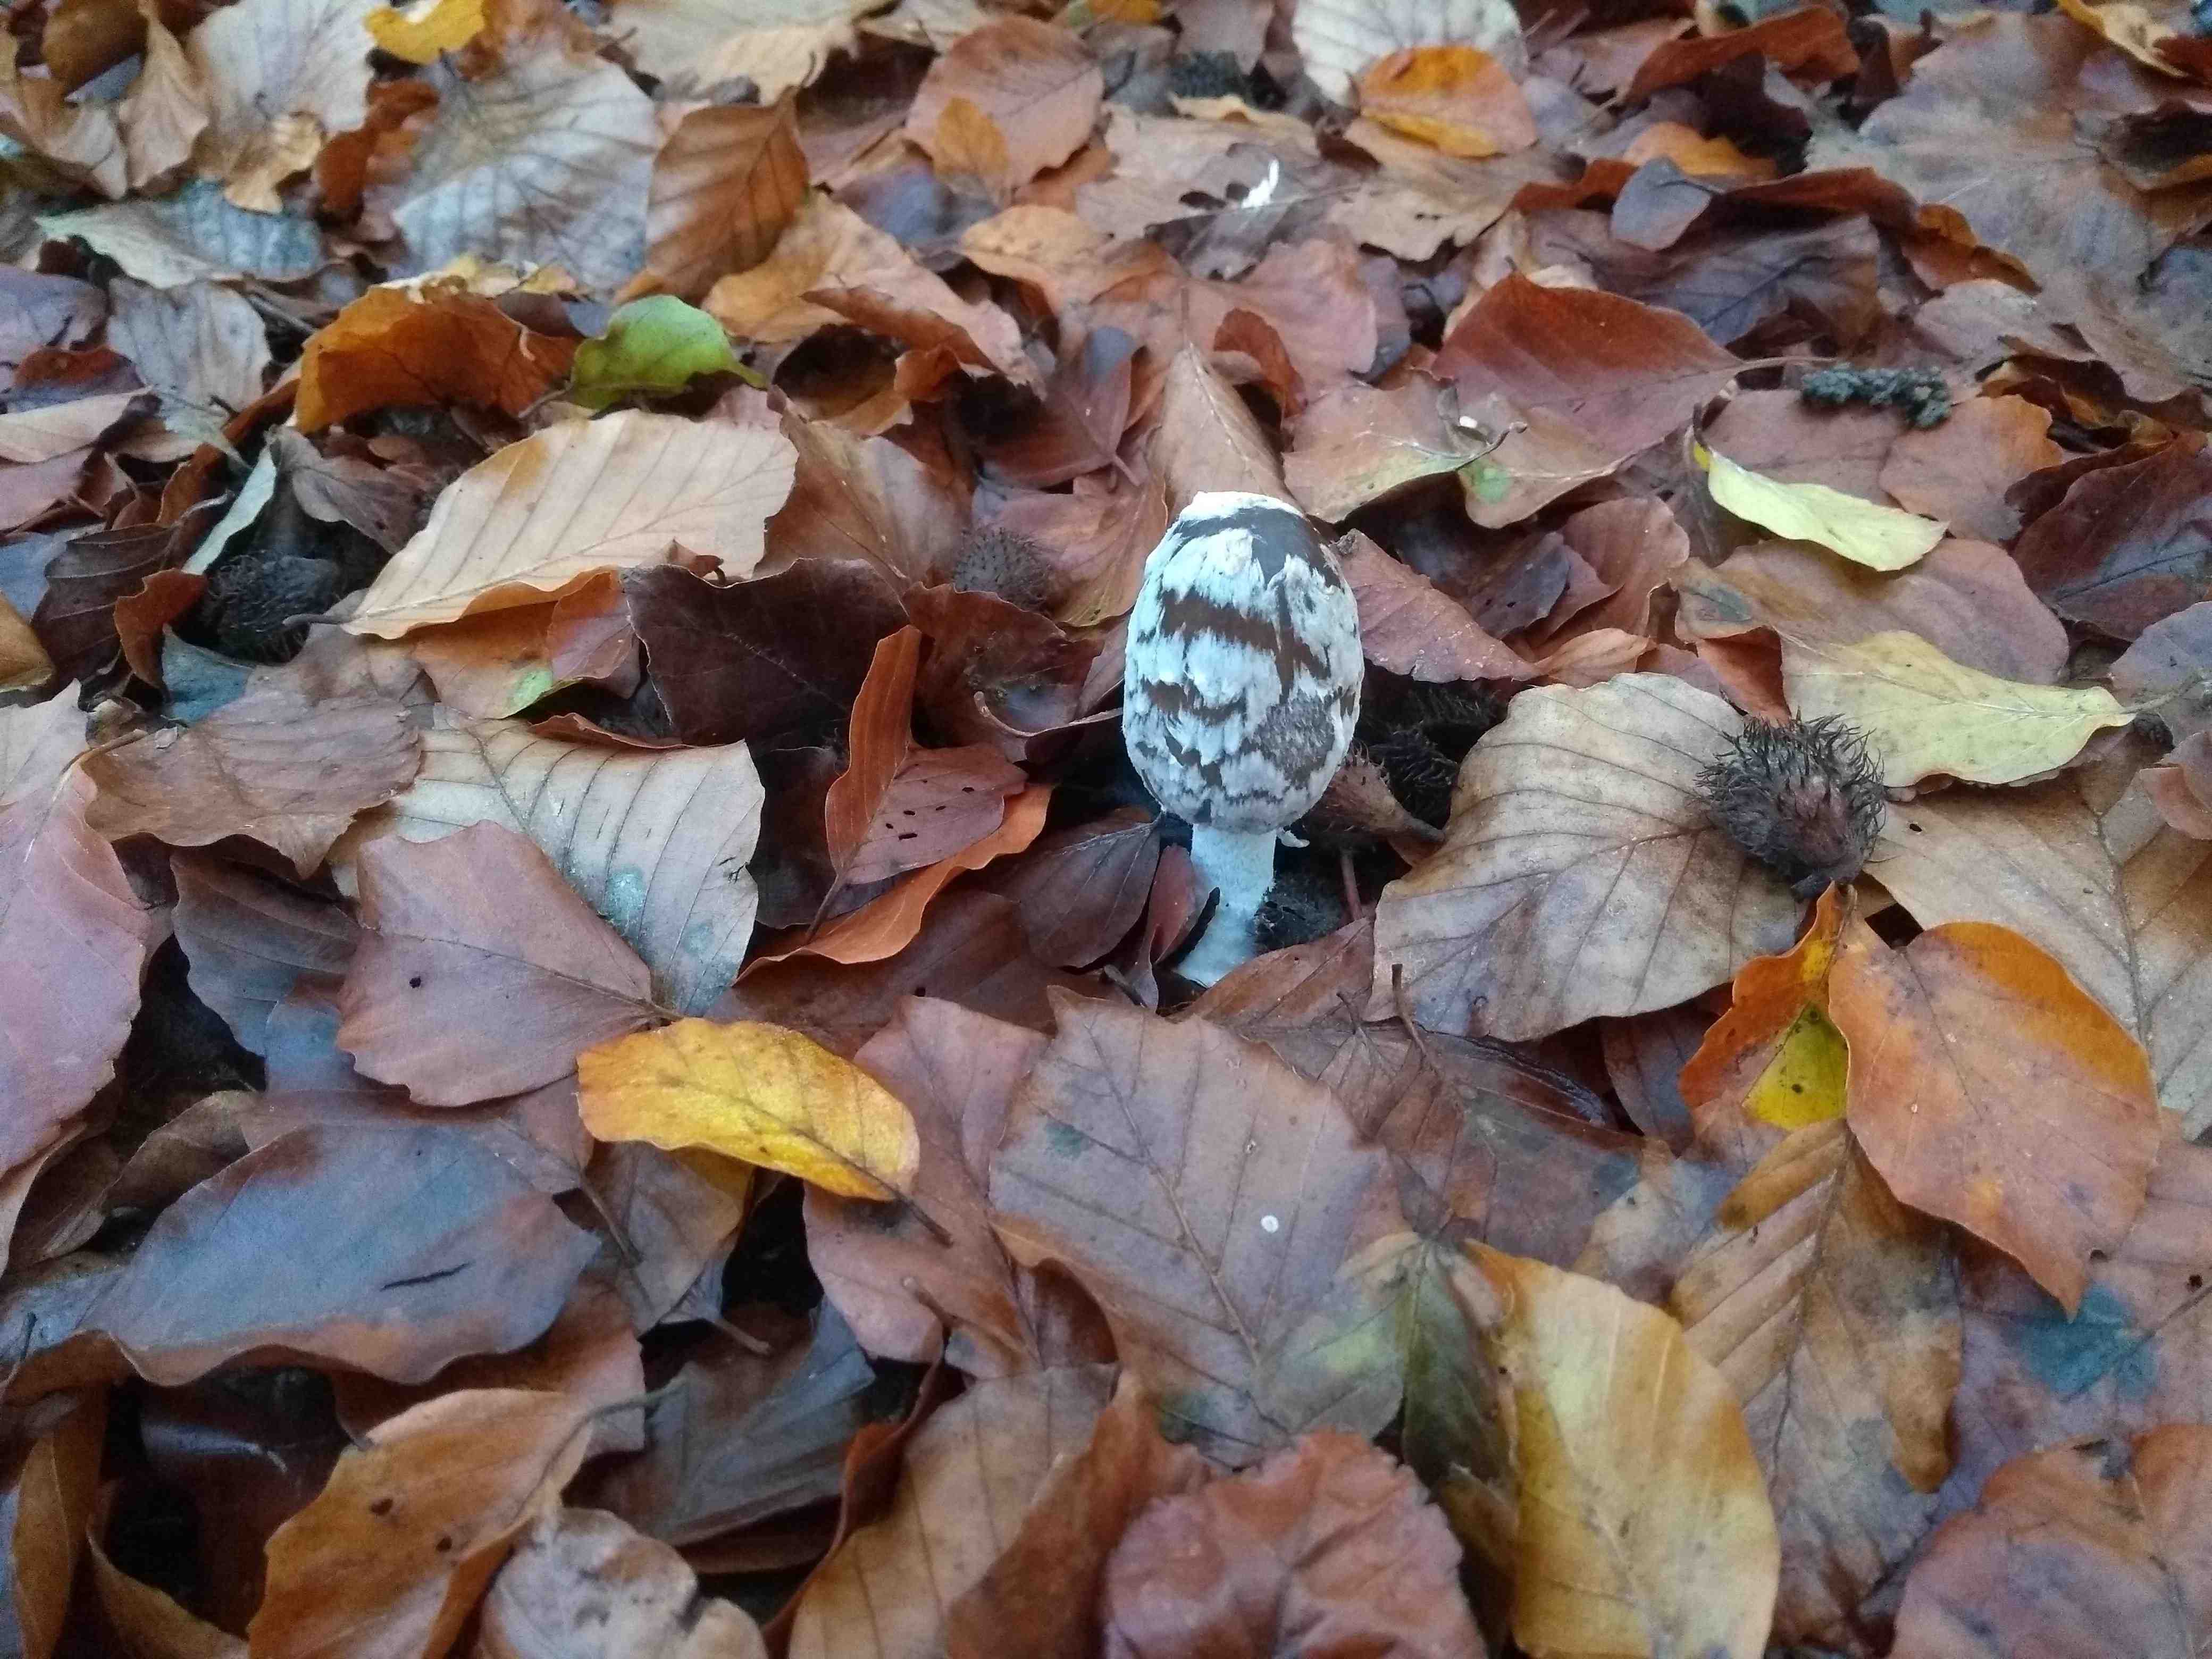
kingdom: Fungi
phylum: Basidiomycota
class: Agaricomycetes
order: Agaricales
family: Psathyrellaceae
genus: Coprinopsis
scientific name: Coprinopsis picacea
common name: skade-blækhat
